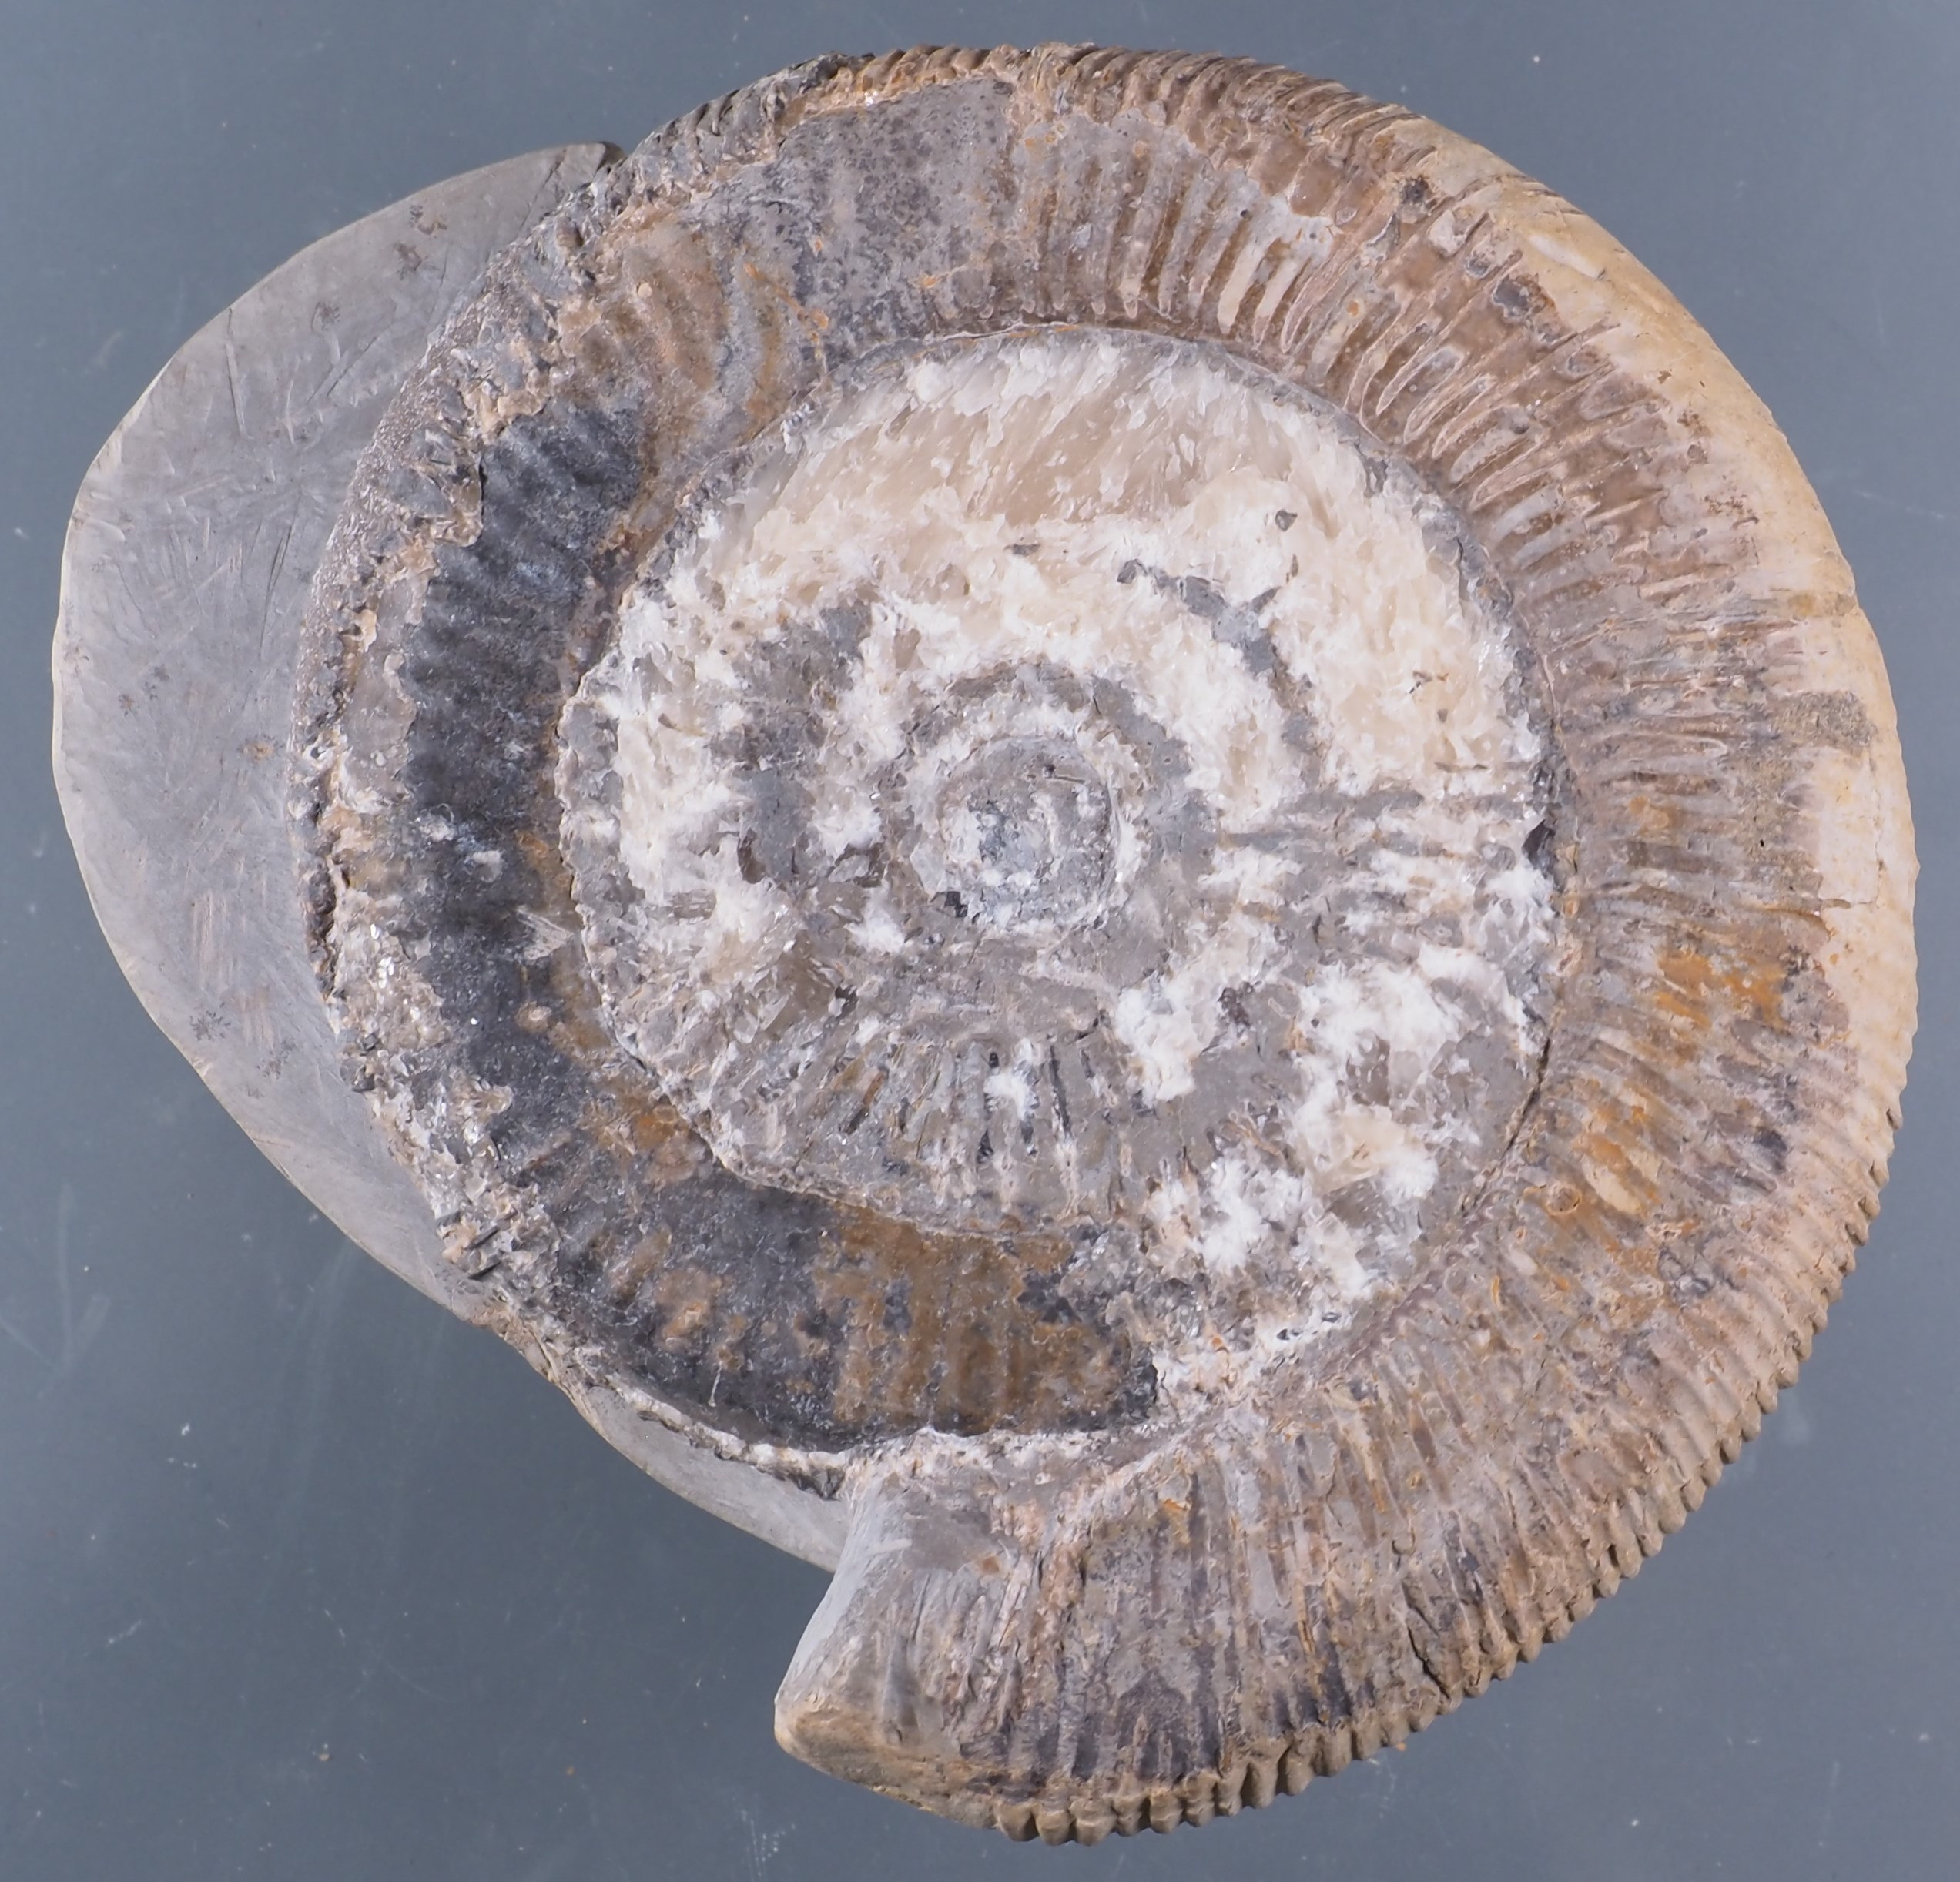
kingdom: Animalia
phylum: Mollusca
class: Cephalopoda
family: Dactylioceratidae
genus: Dactylioceras
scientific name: Dactylioceras
